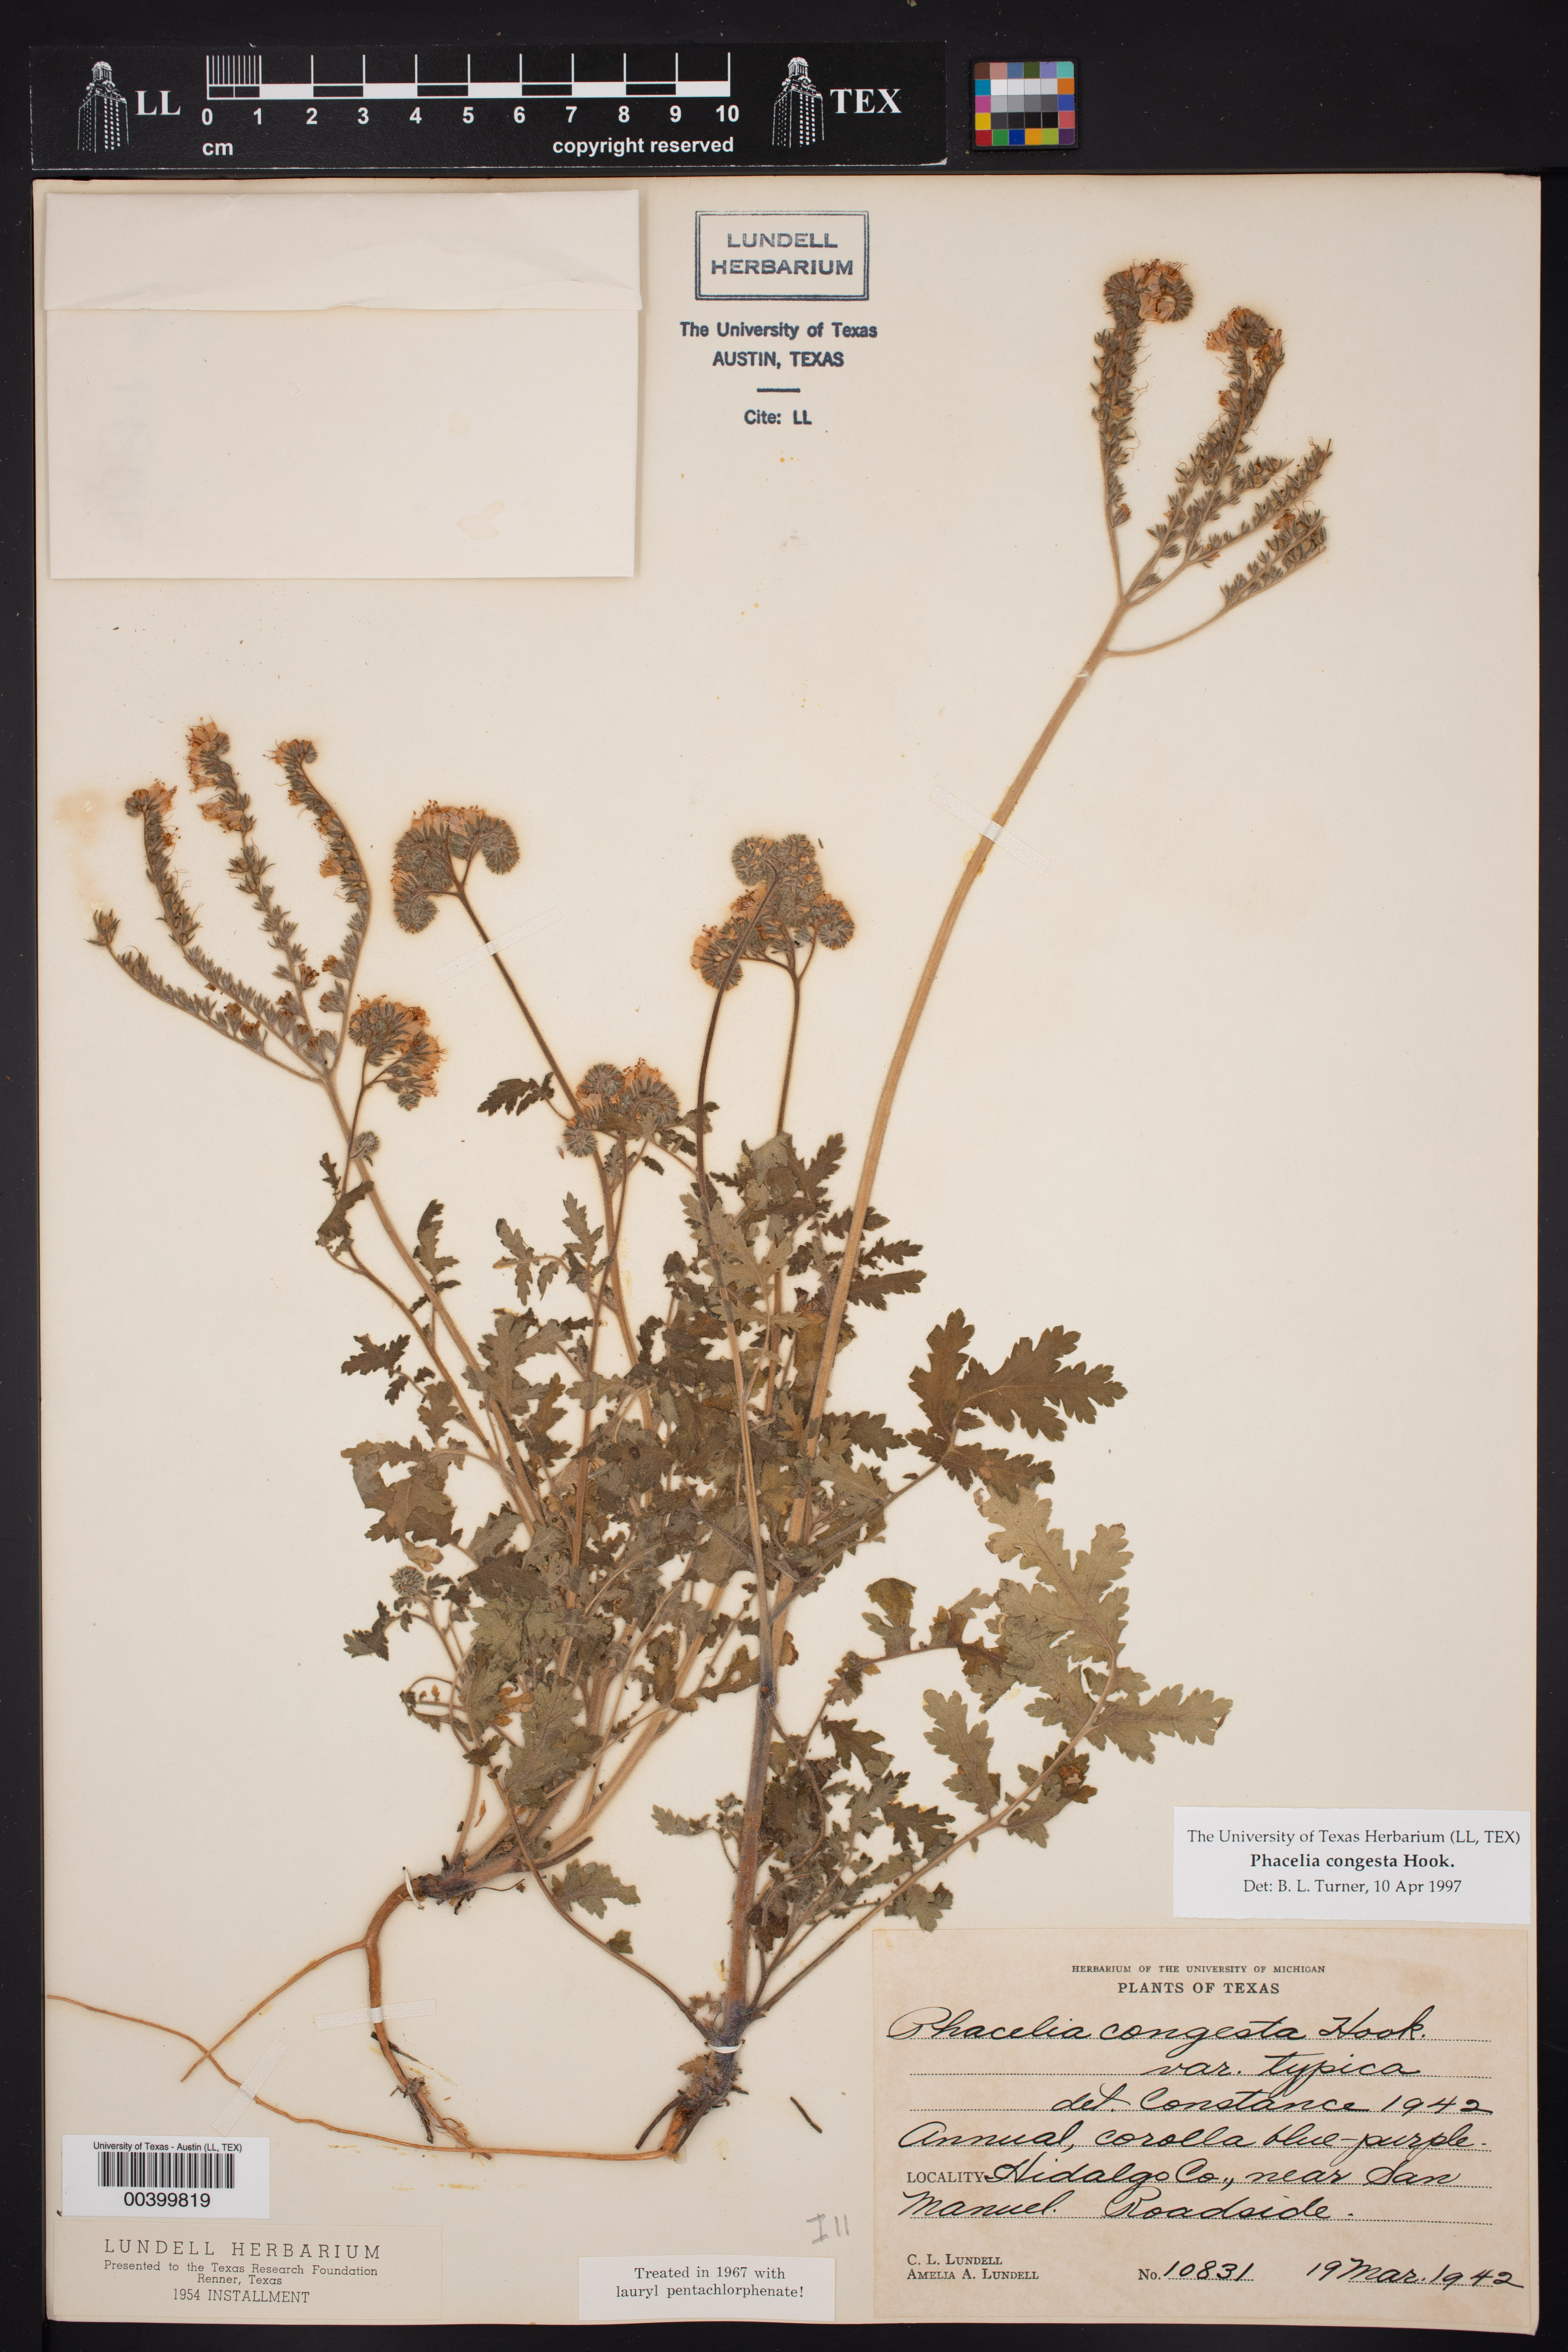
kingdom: Plantae
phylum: Tracheophyta
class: Magnoliopsida
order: Boraginales
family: Hydrophyllaceae
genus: Phacelia
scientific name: Phacelia congesta
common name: Blue curls
